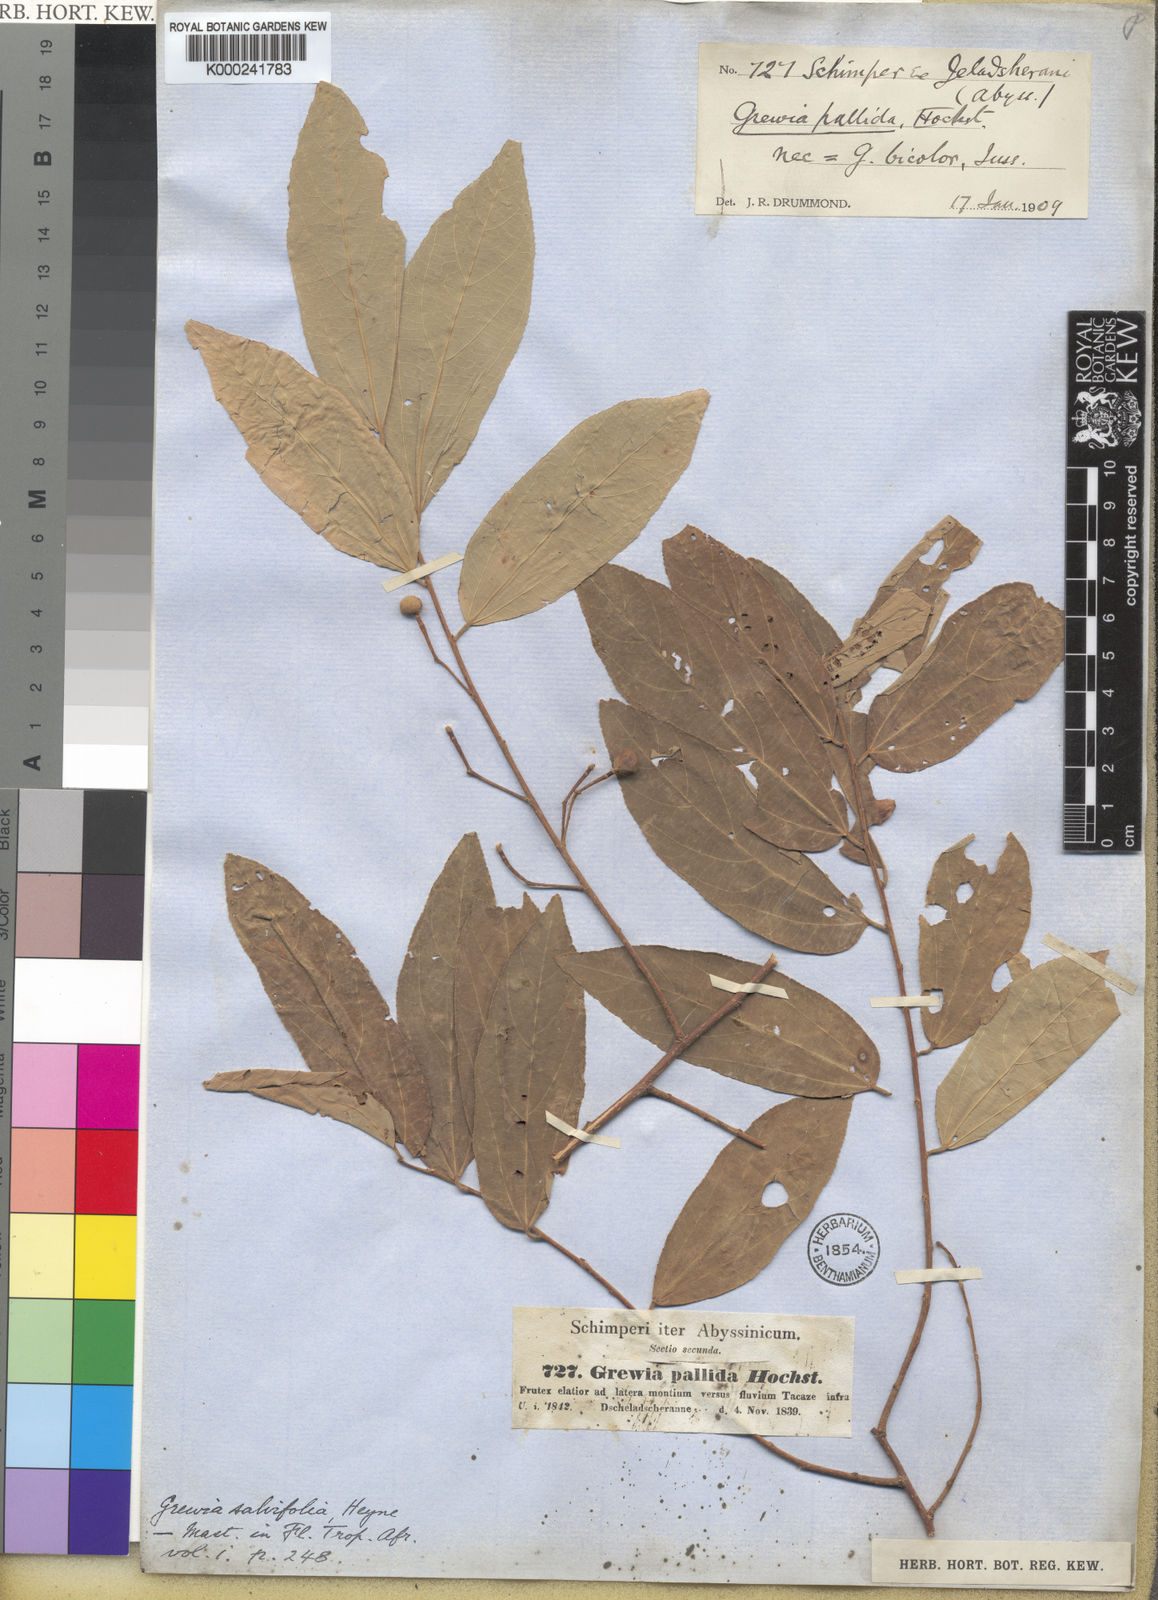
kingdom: Plantae
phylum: Tracheophyta
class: Magnoliopsida
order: Malvales
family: Malvaceae
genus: Grewia
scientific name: Grewia bicolor
